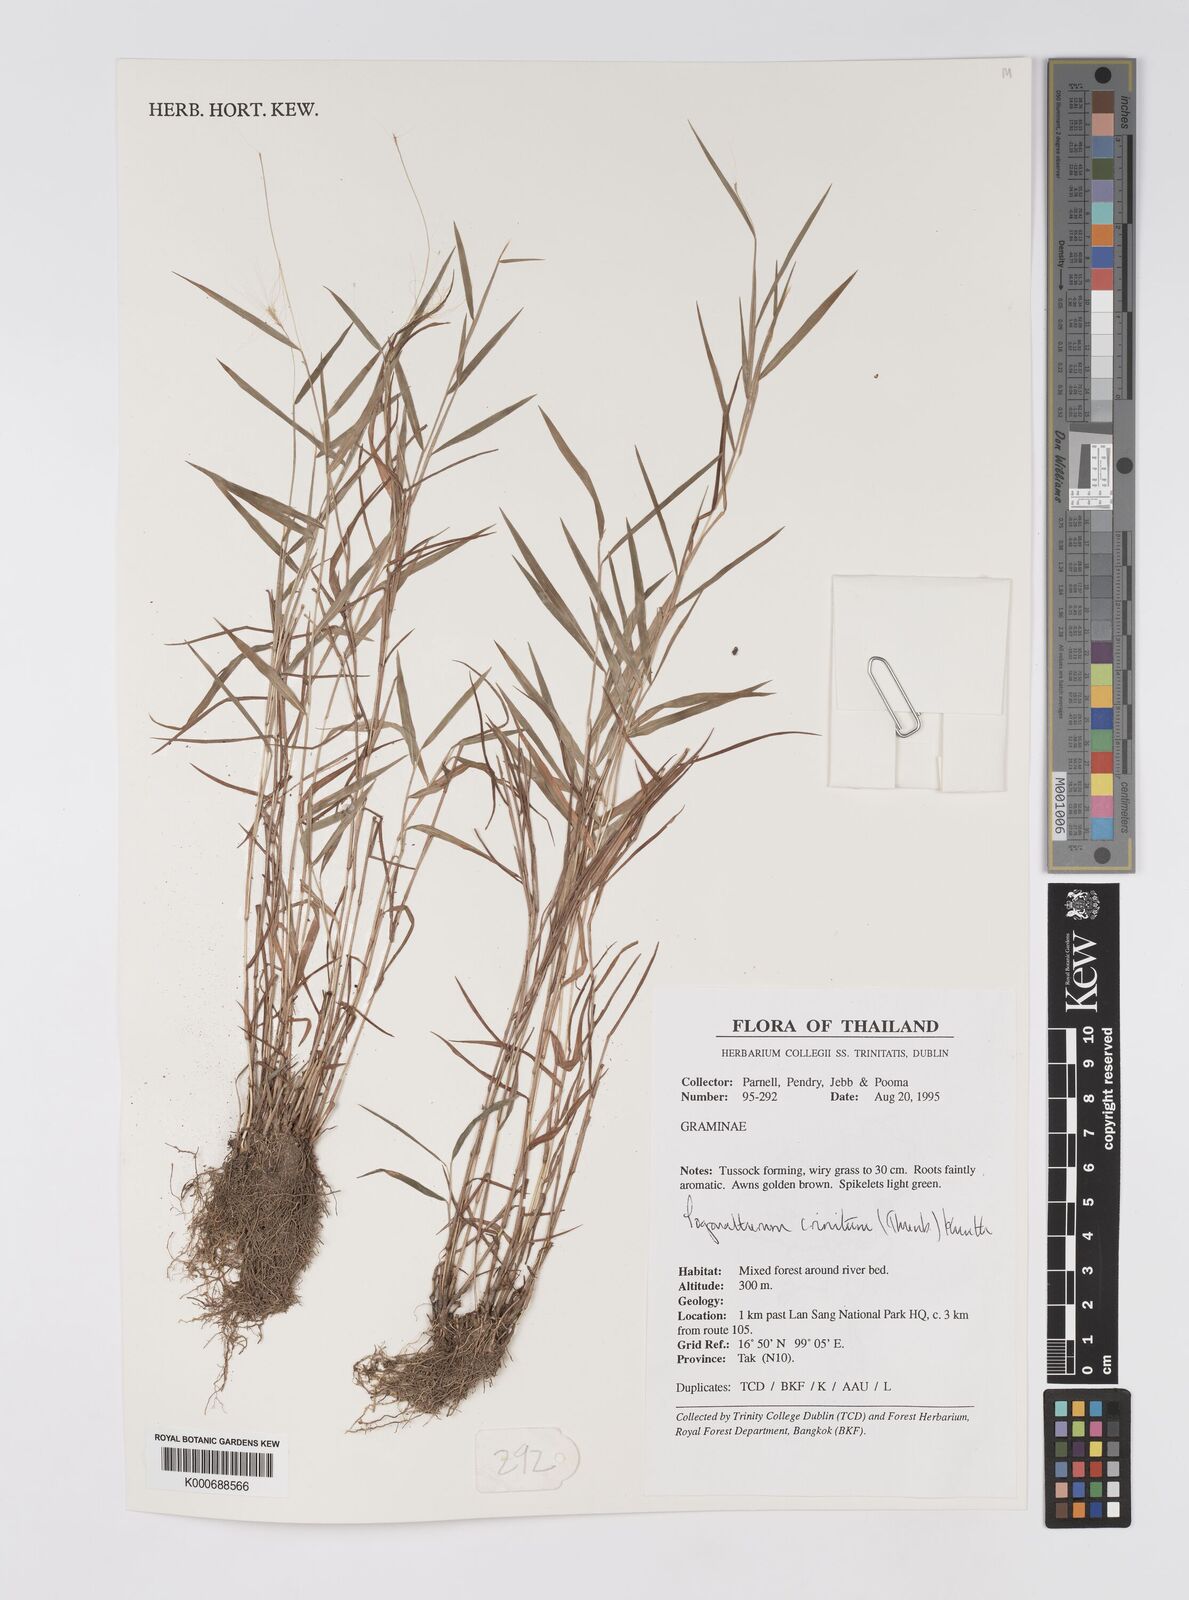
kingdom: Plantae
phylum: Tracheophyta
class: Liliopsida
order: Poales
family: Poaceae
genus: Pogonatherum
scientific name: Pogonatherum crinitum
